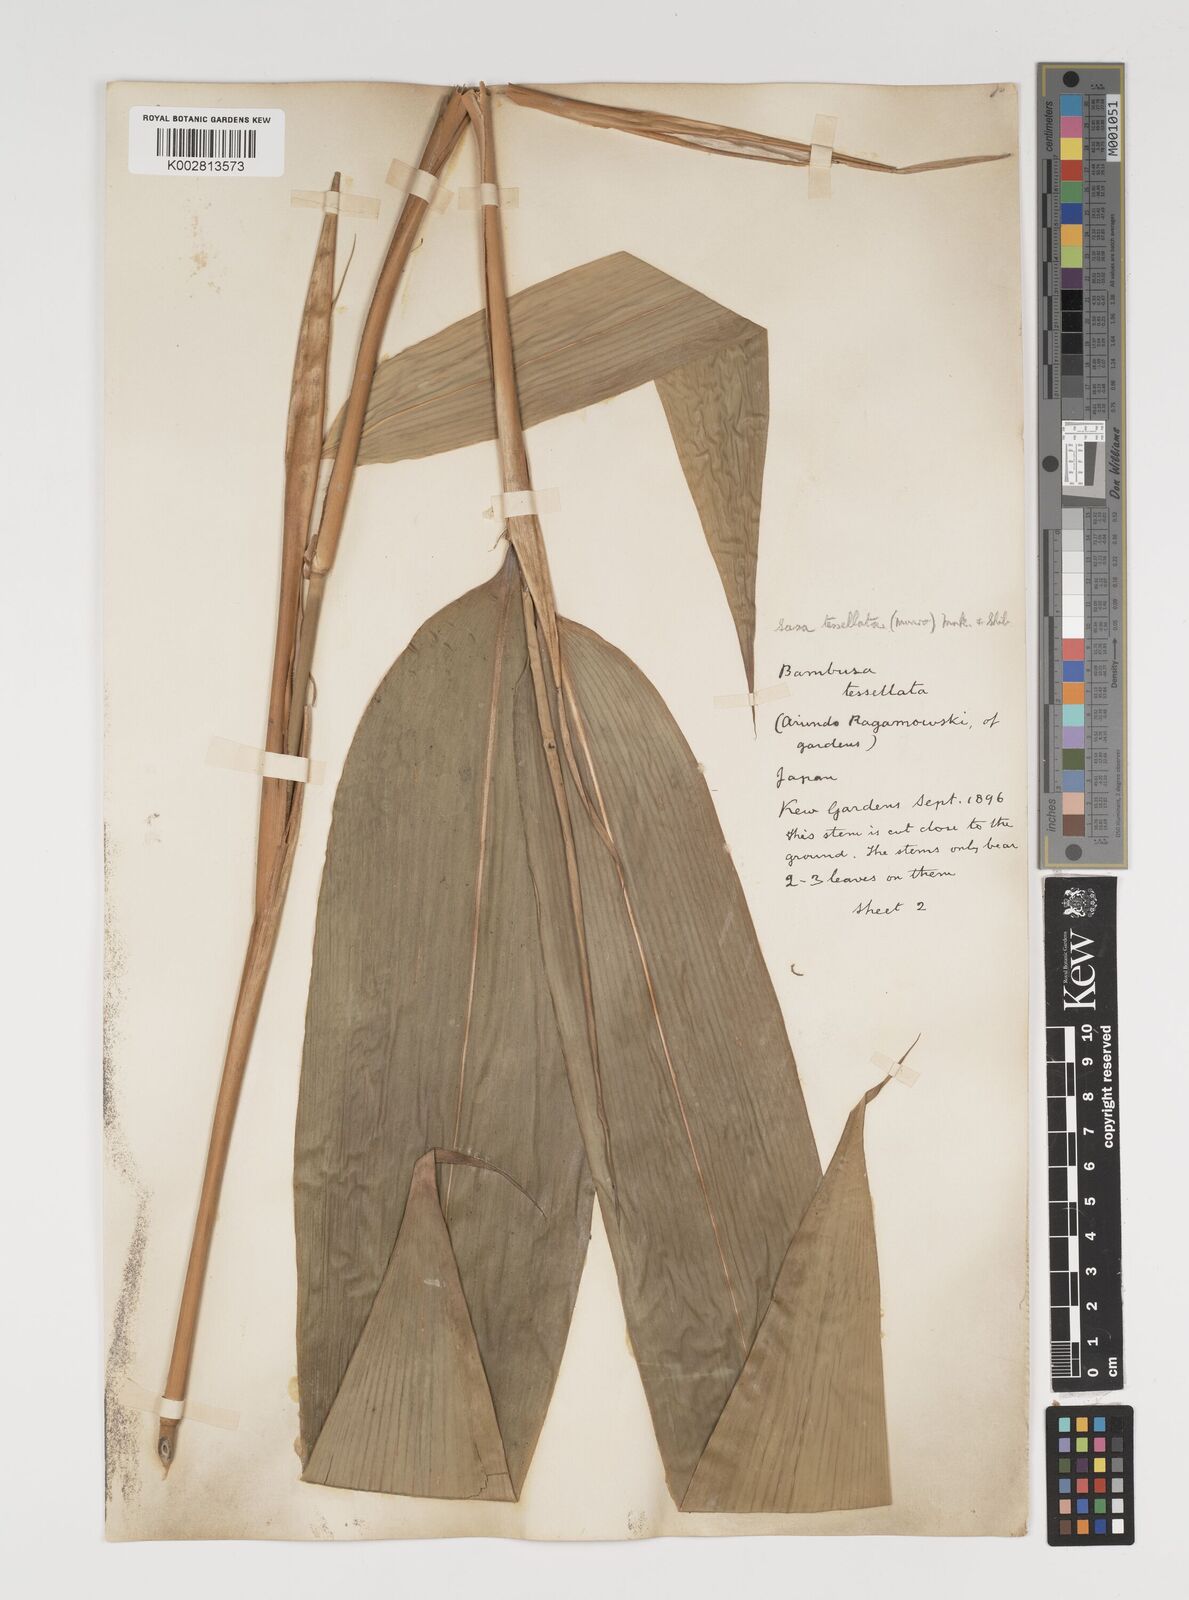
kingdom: Plantae
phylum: Tracheophyta
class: Liliopsida
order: Poales
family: Poaceae
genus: Indocalamus
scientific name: Indocalamus tessellatus
